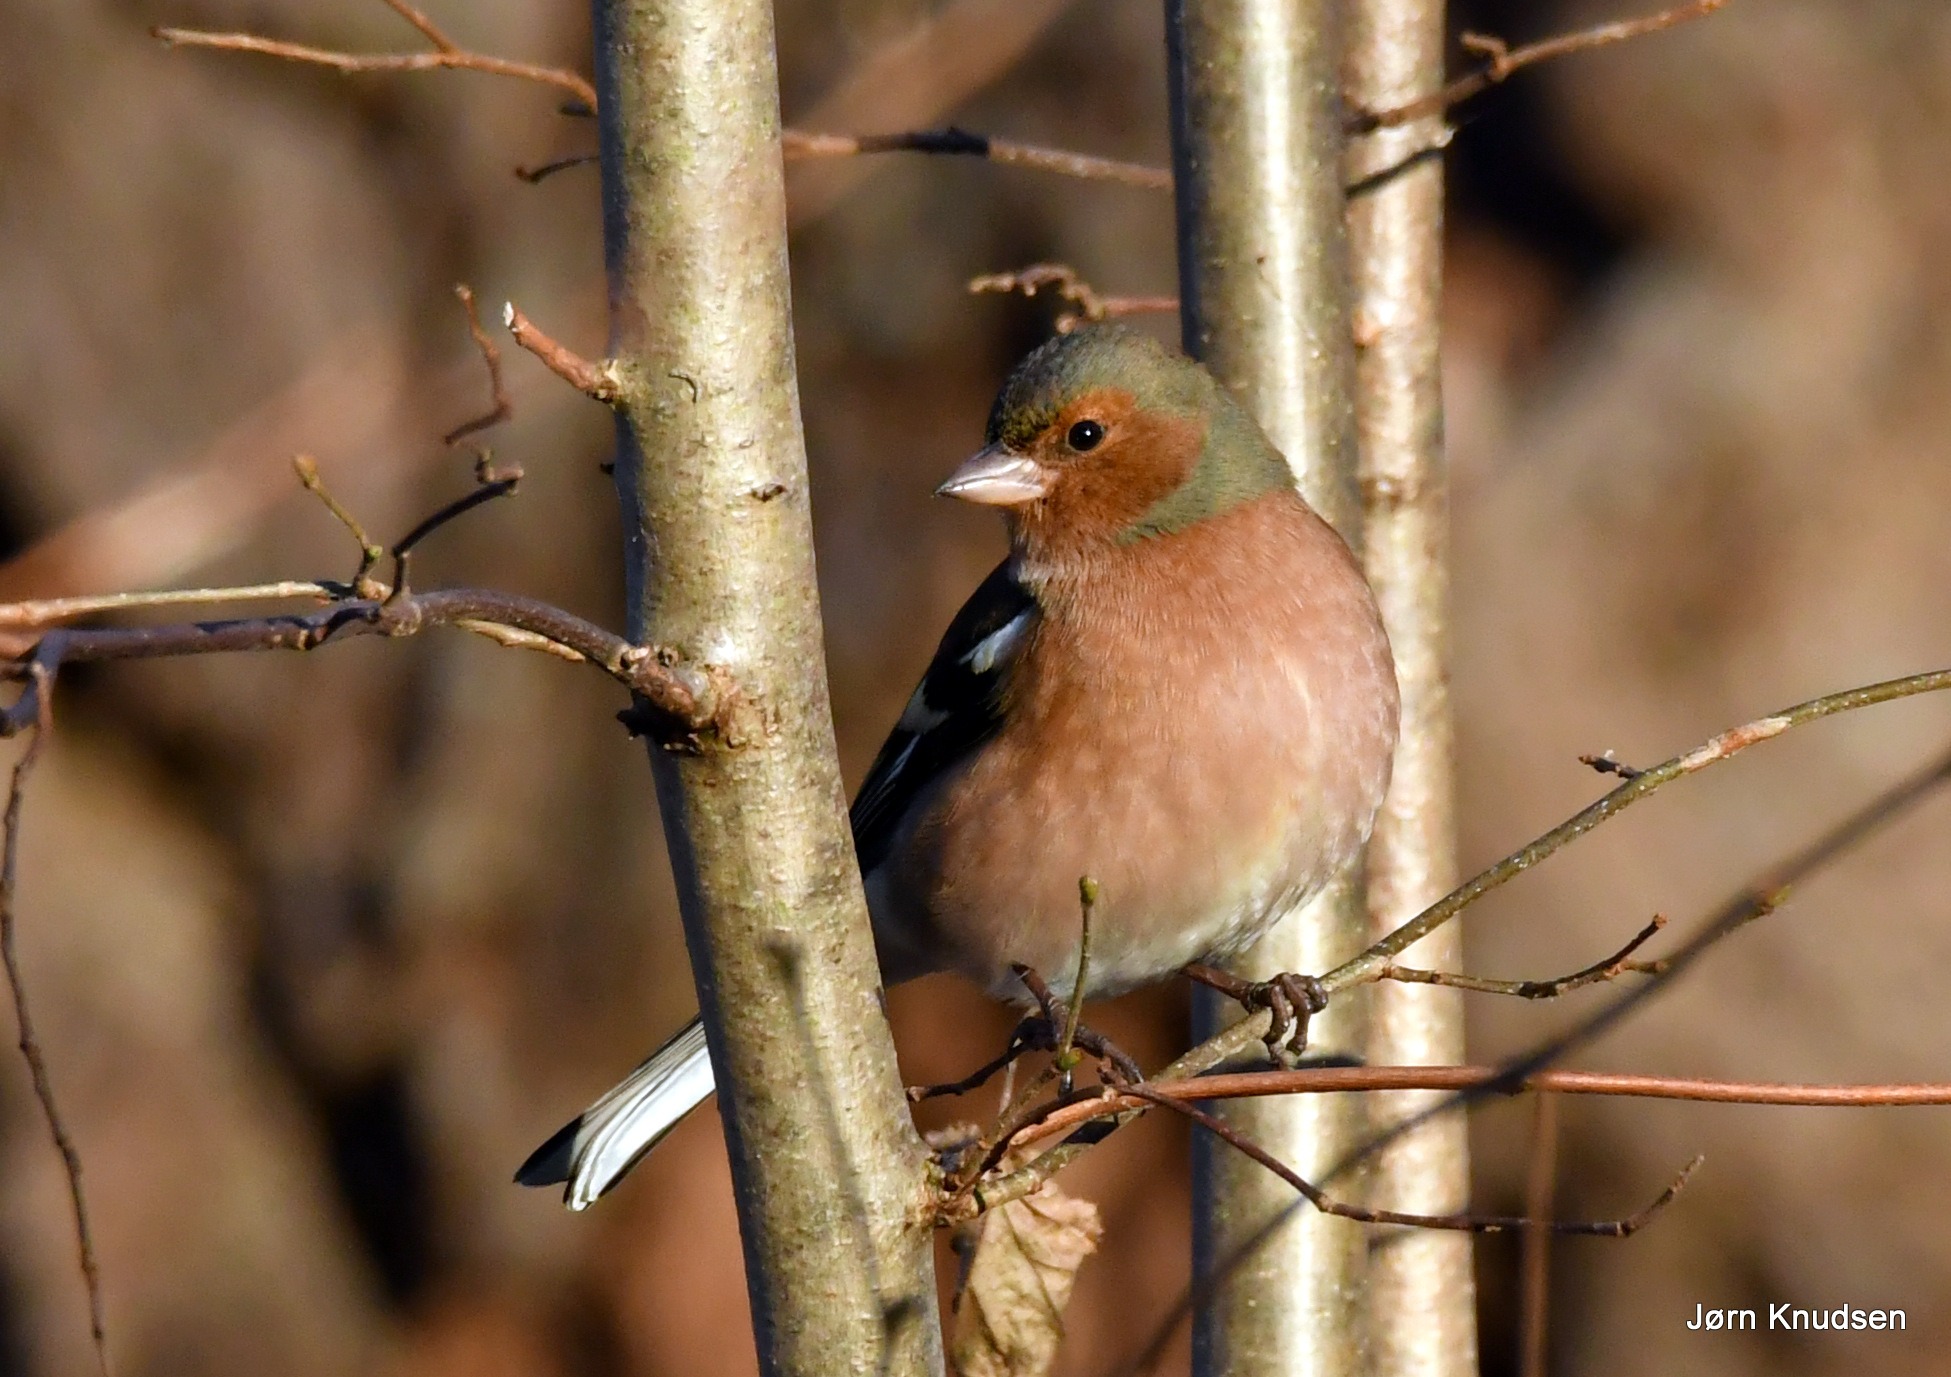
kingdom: Animalia
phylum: Chordata
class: Aves
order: Passeriformes
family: Fringillidae
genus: Fringilla
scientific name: Fringilla coelebs
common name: Bogfinke
